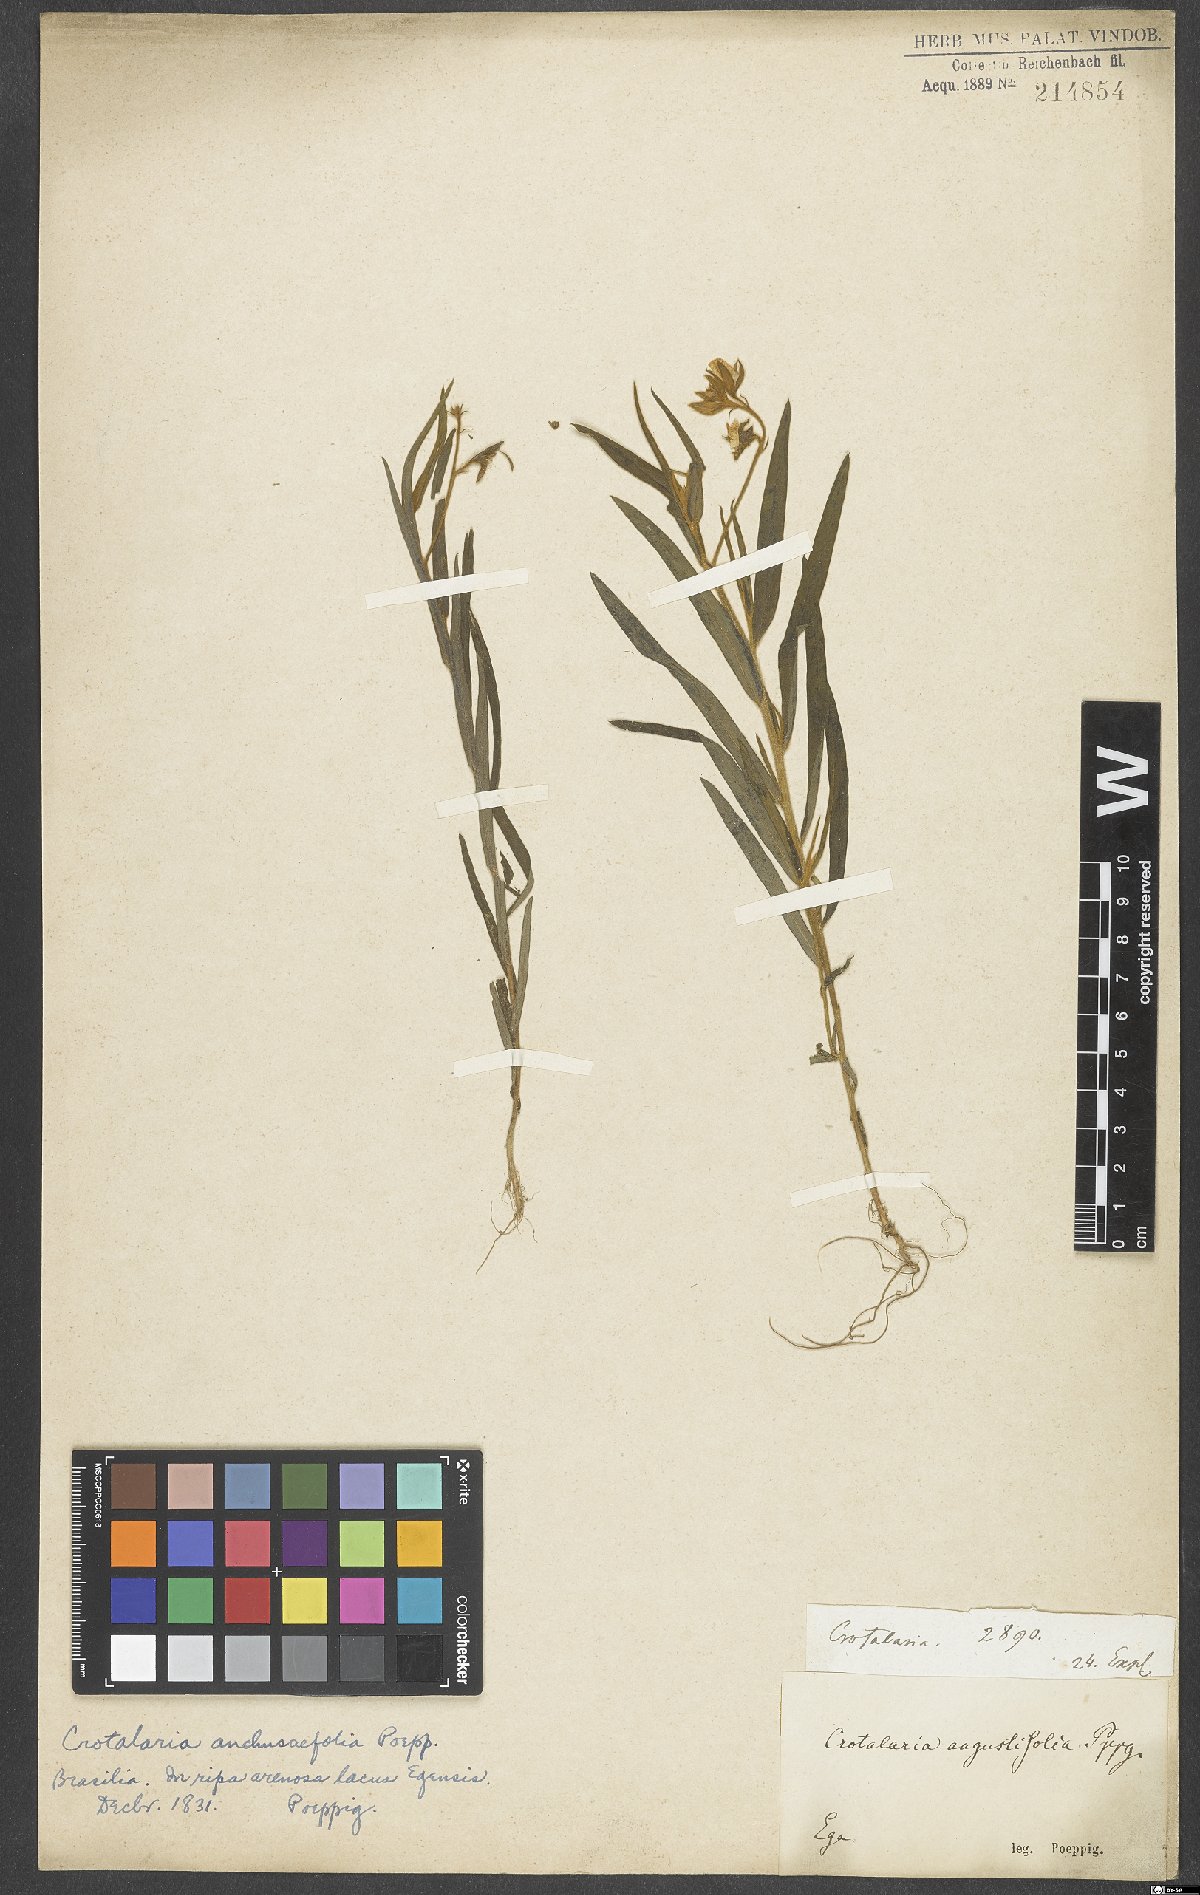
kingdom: Plantae
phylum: Tracheophyta
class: Magnoliopsida
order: Fabales
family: Fabaceae
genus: Crotalaria
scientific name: Crotalaria
